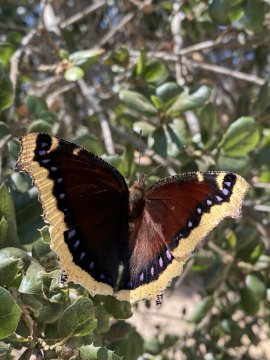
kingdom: Animalia
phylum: Arthropoda
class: Insecta
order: Lepidoptera
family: Nymphalidae
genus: Nymphalis
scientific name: Nymphalis antiopa
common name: Mourning Cloak
